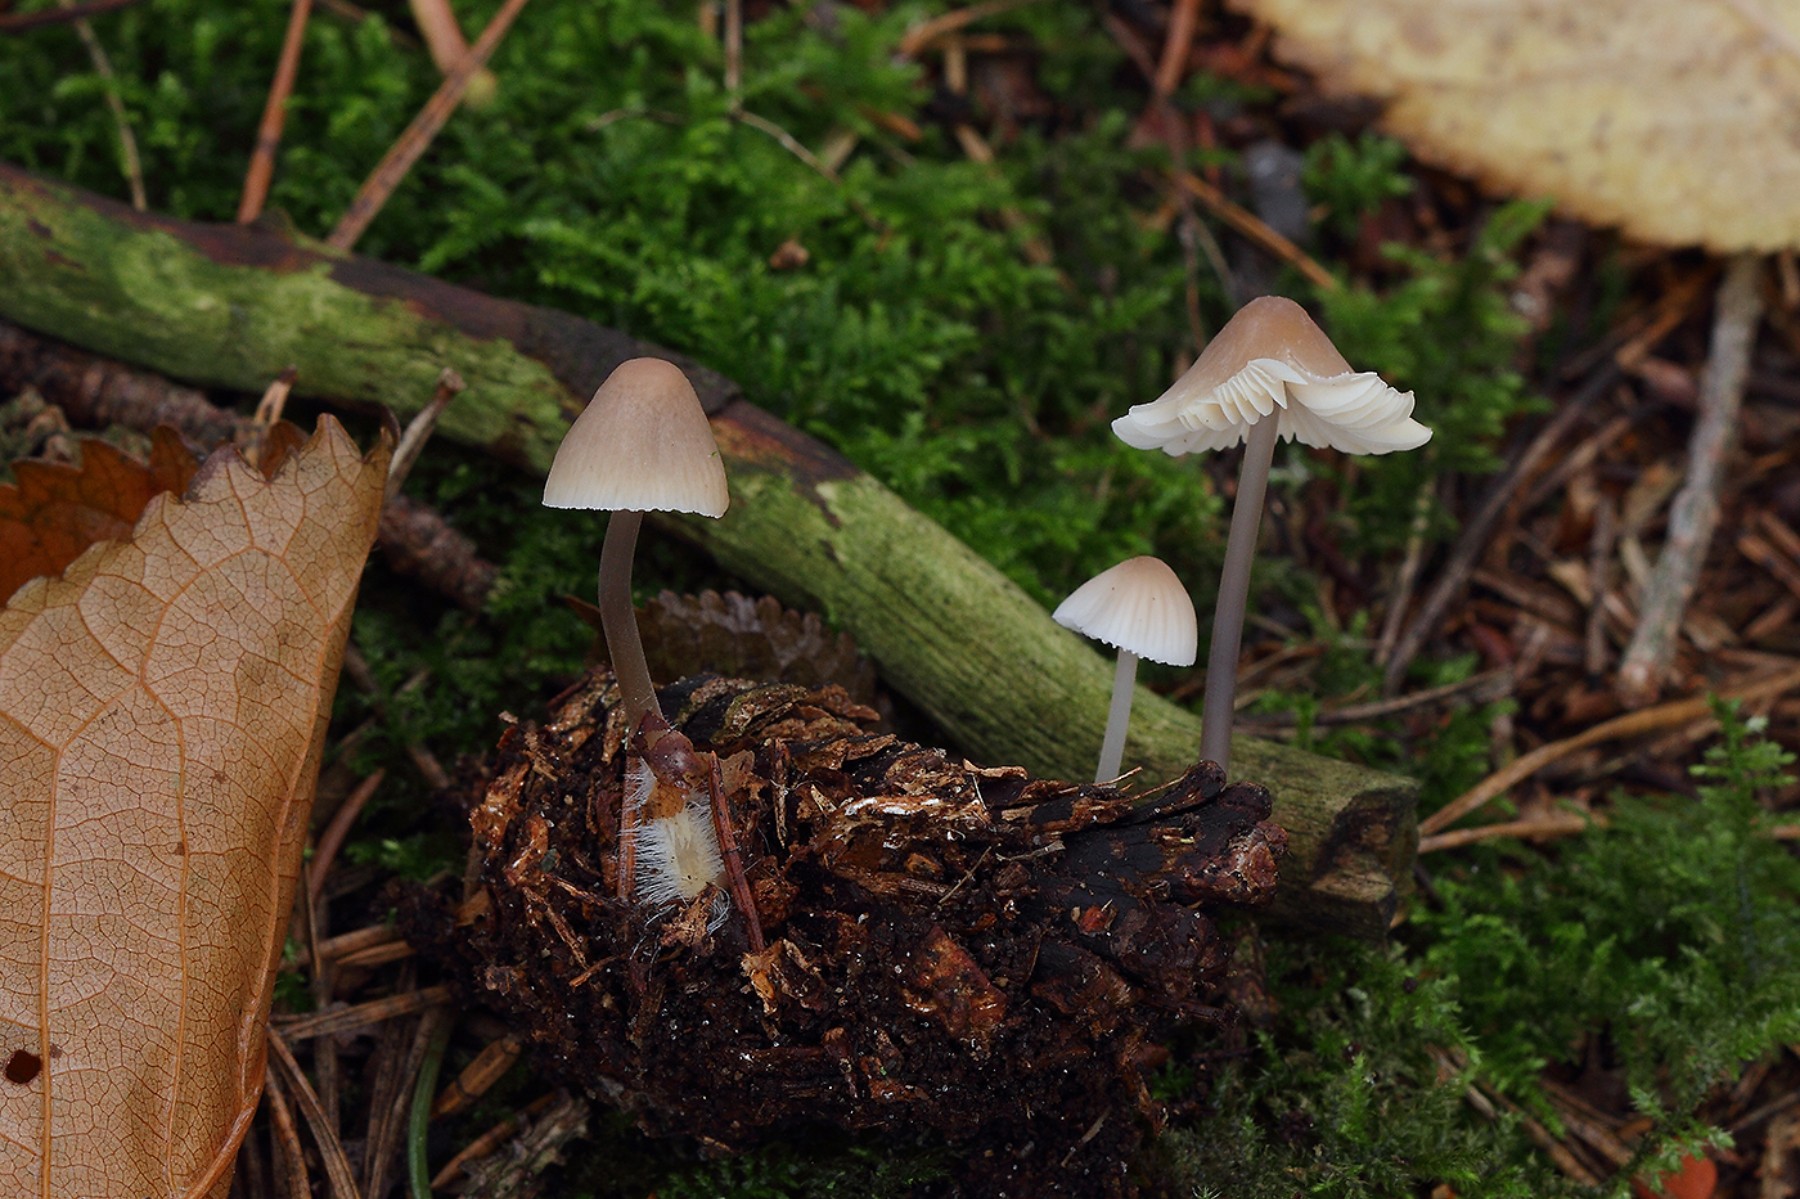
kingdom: Fungi
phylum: Basidiomycota
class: Agaricomycetes
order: Agaricales
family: Mycenaceae
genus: Mycena
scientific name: Mycena metata
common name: rødlig huesvamp
